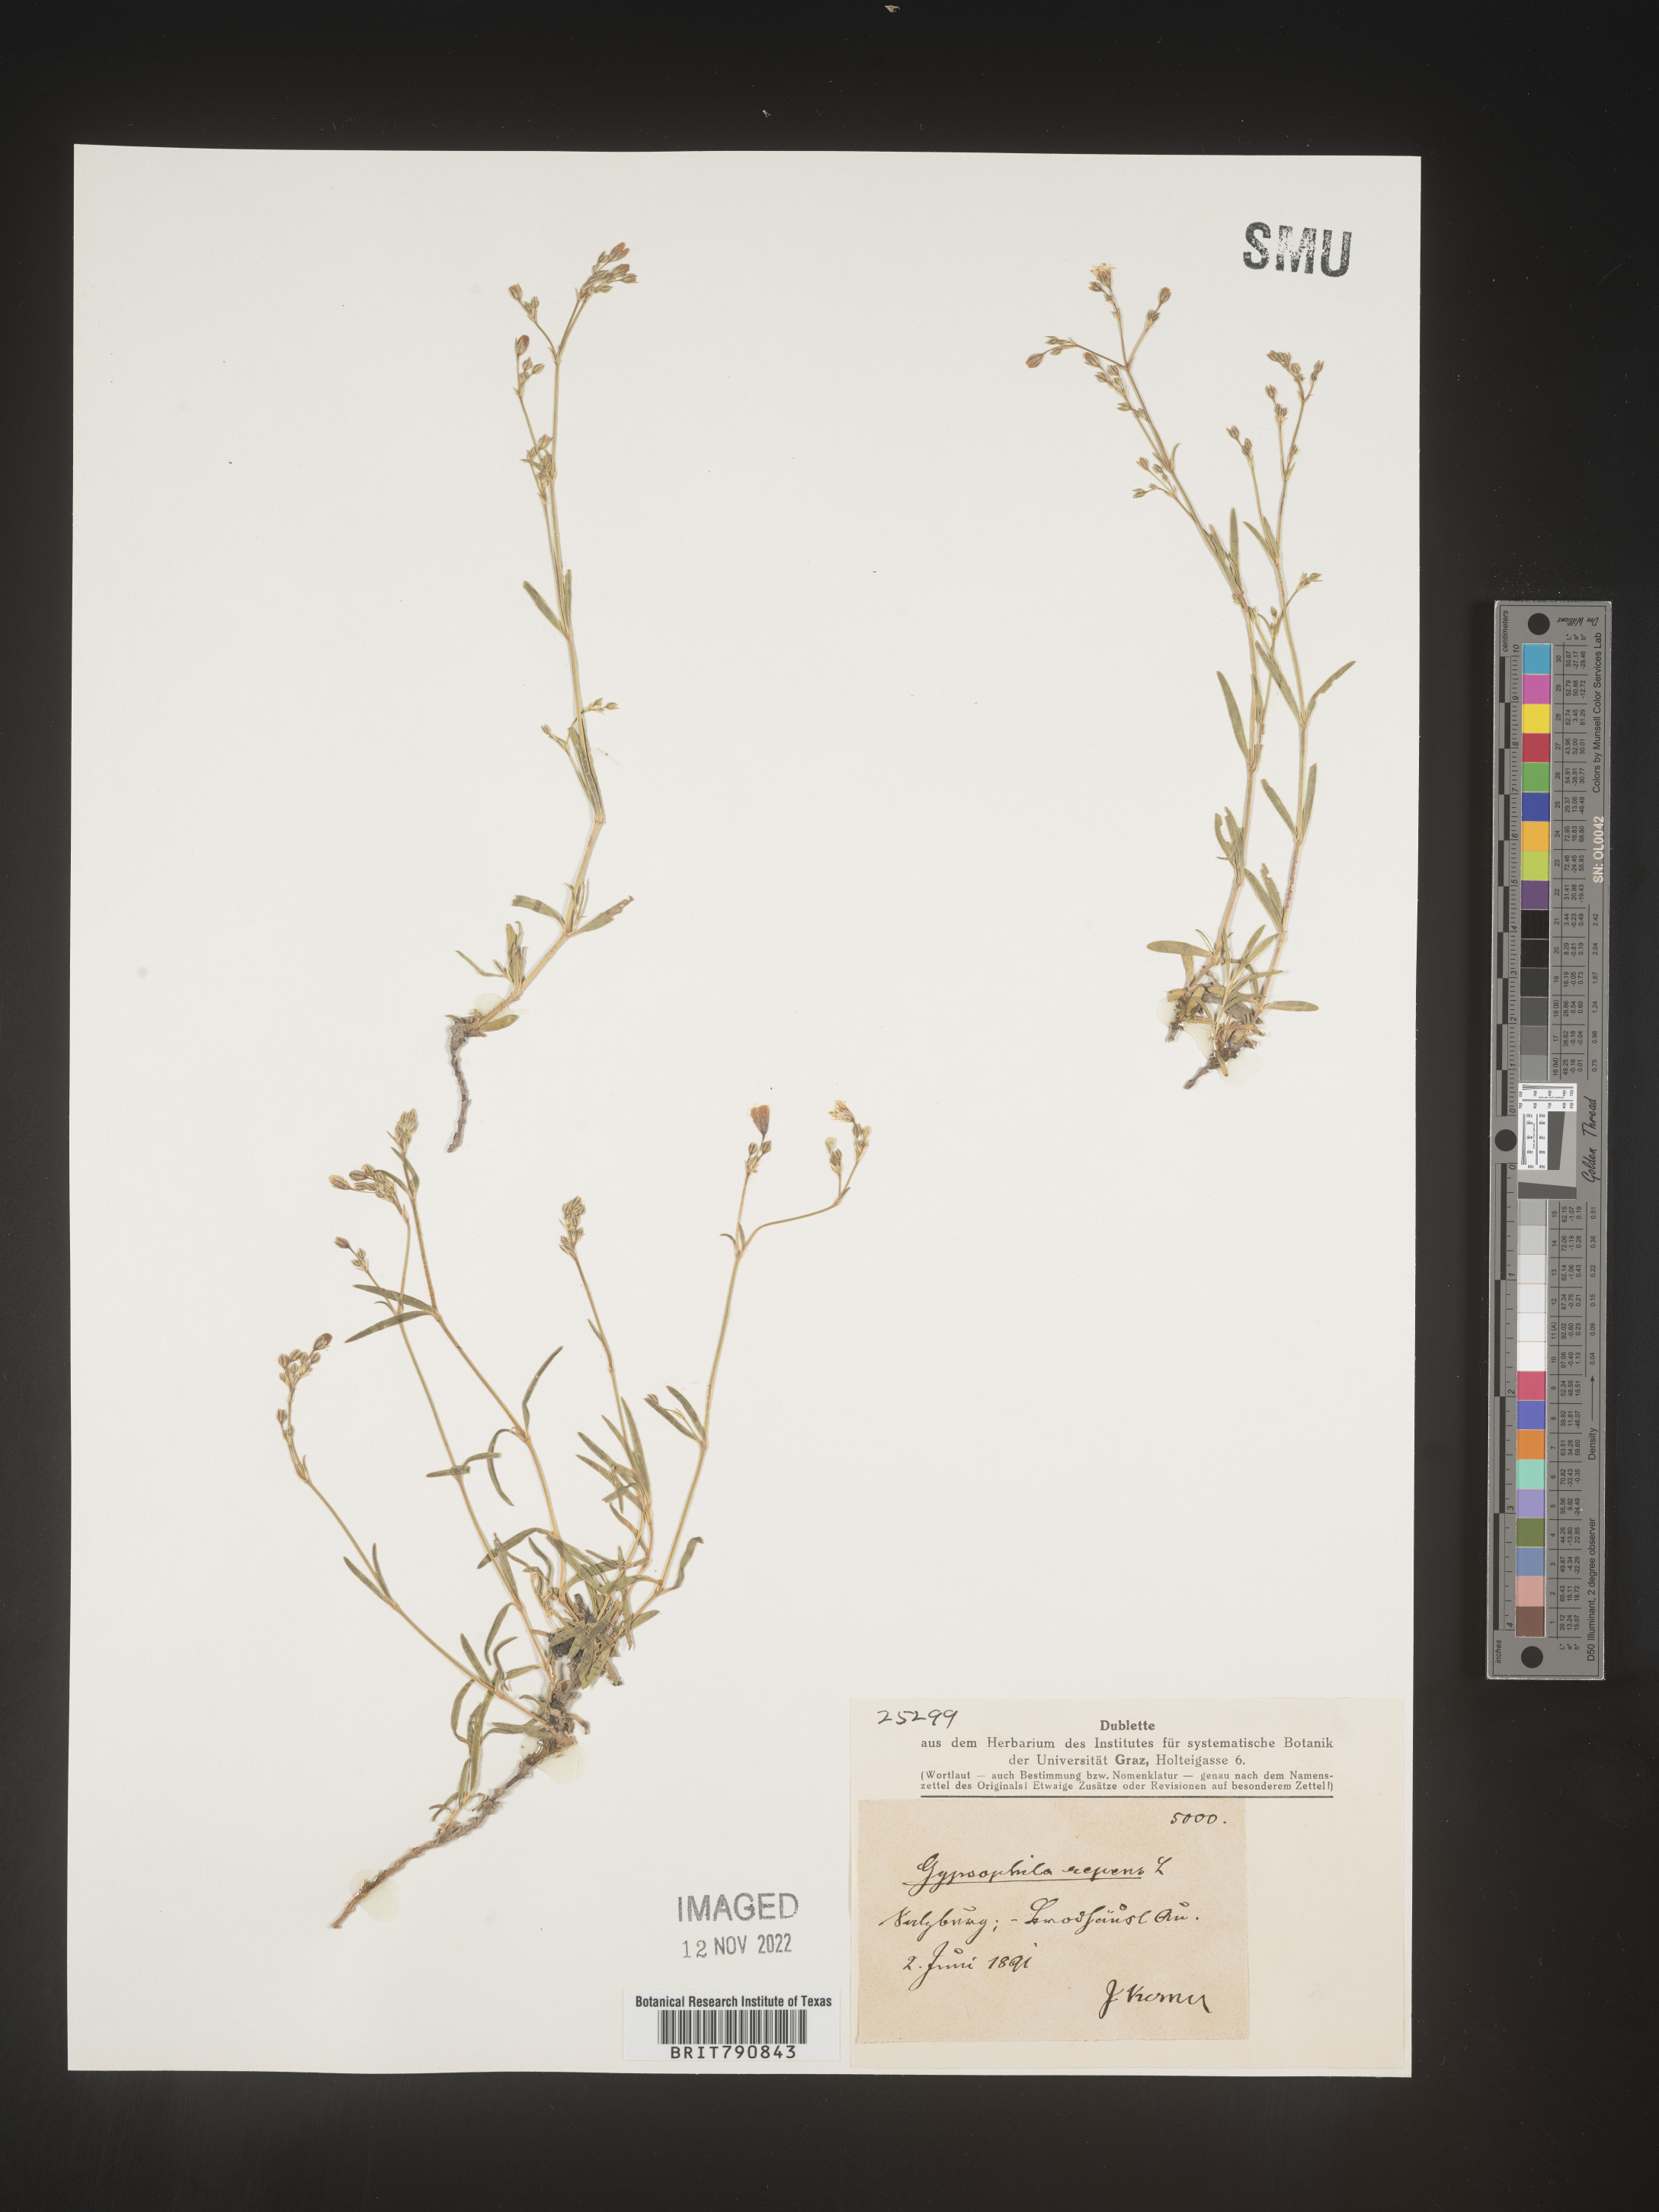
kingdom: Plantae
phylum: Tracheophyta
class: Magnoliopsida
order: Caryophyllales
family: Caryophyllaceae
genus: Gypsophila
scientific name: Gypsophila
